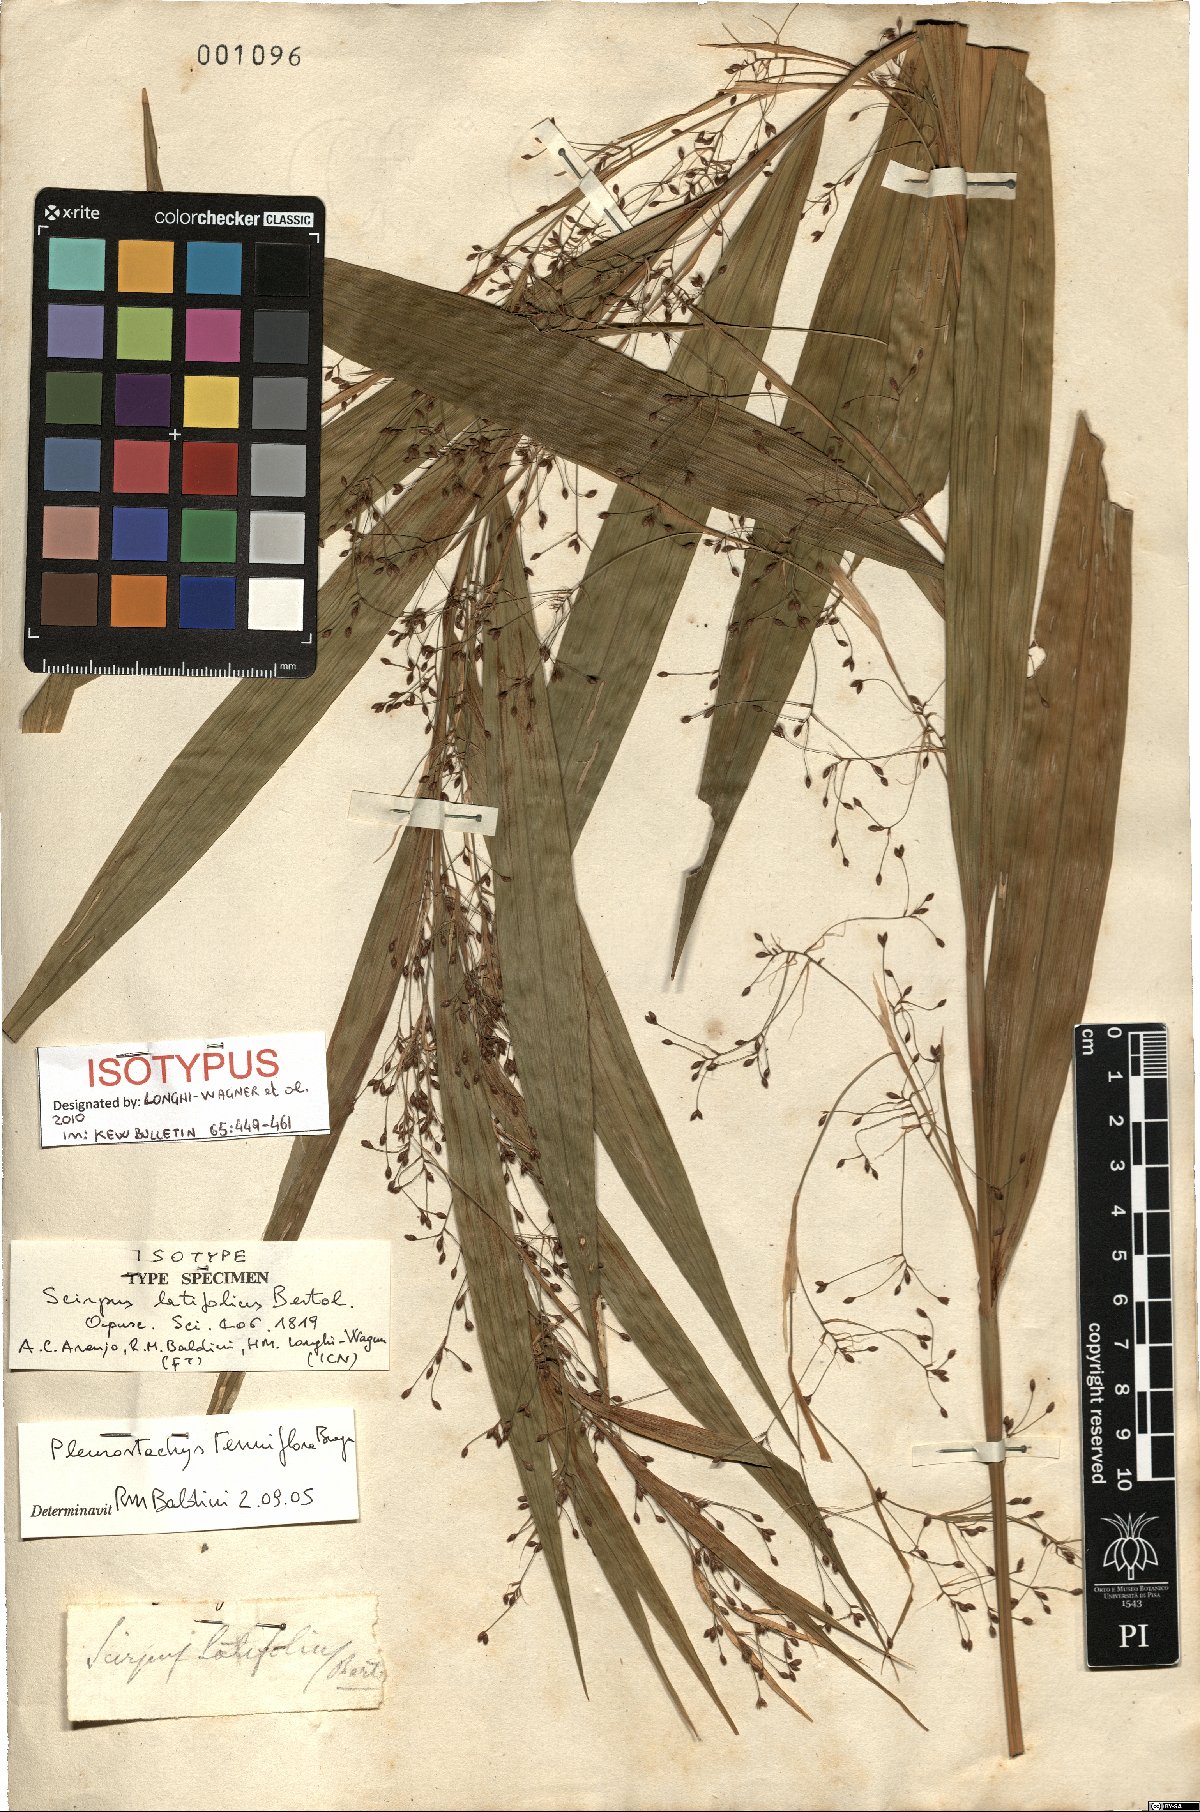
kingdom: Plantae
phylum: Tracheophyta
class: Liliopsida
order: Poales
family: Cyperaceae
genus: Rhynchospora
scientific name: Rhynchospora tenuiflora
